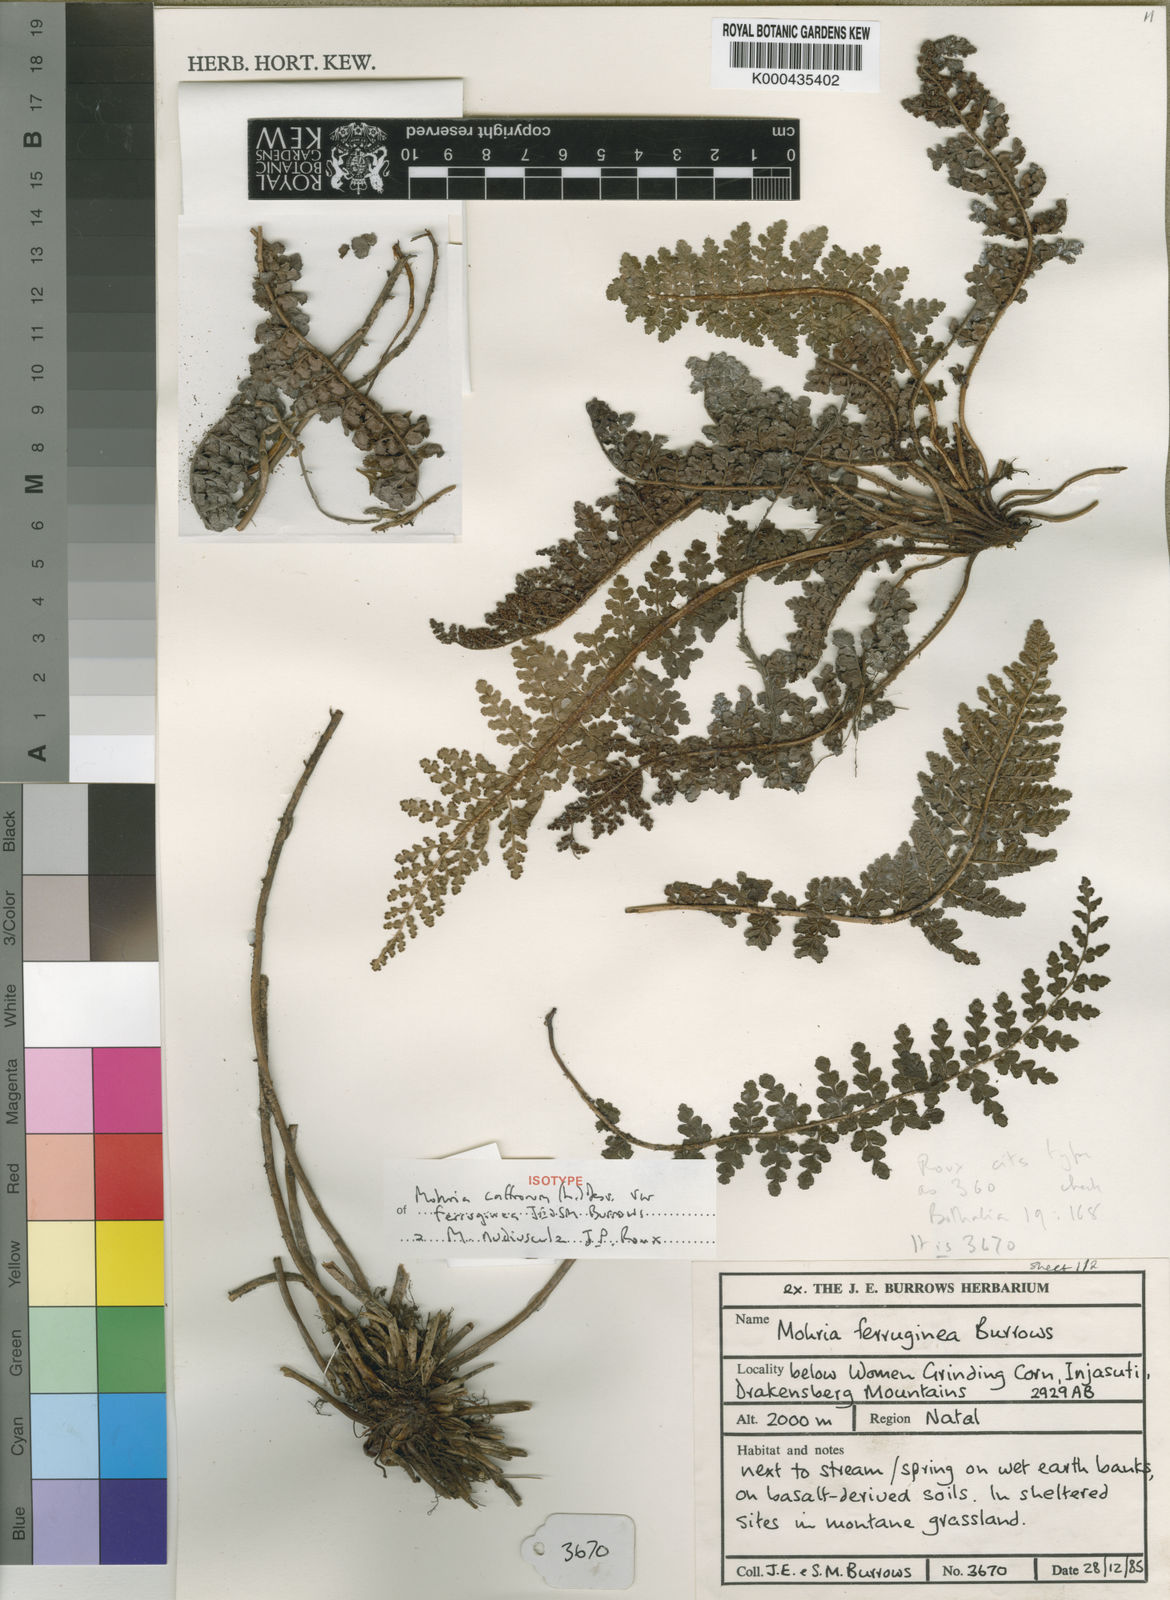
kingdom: Plantae
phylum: Tracheophyta
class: Polypodiopsida
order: Schizaeales
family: Anemiaceae
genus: Anemia
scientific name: Anemia nudiuscula
